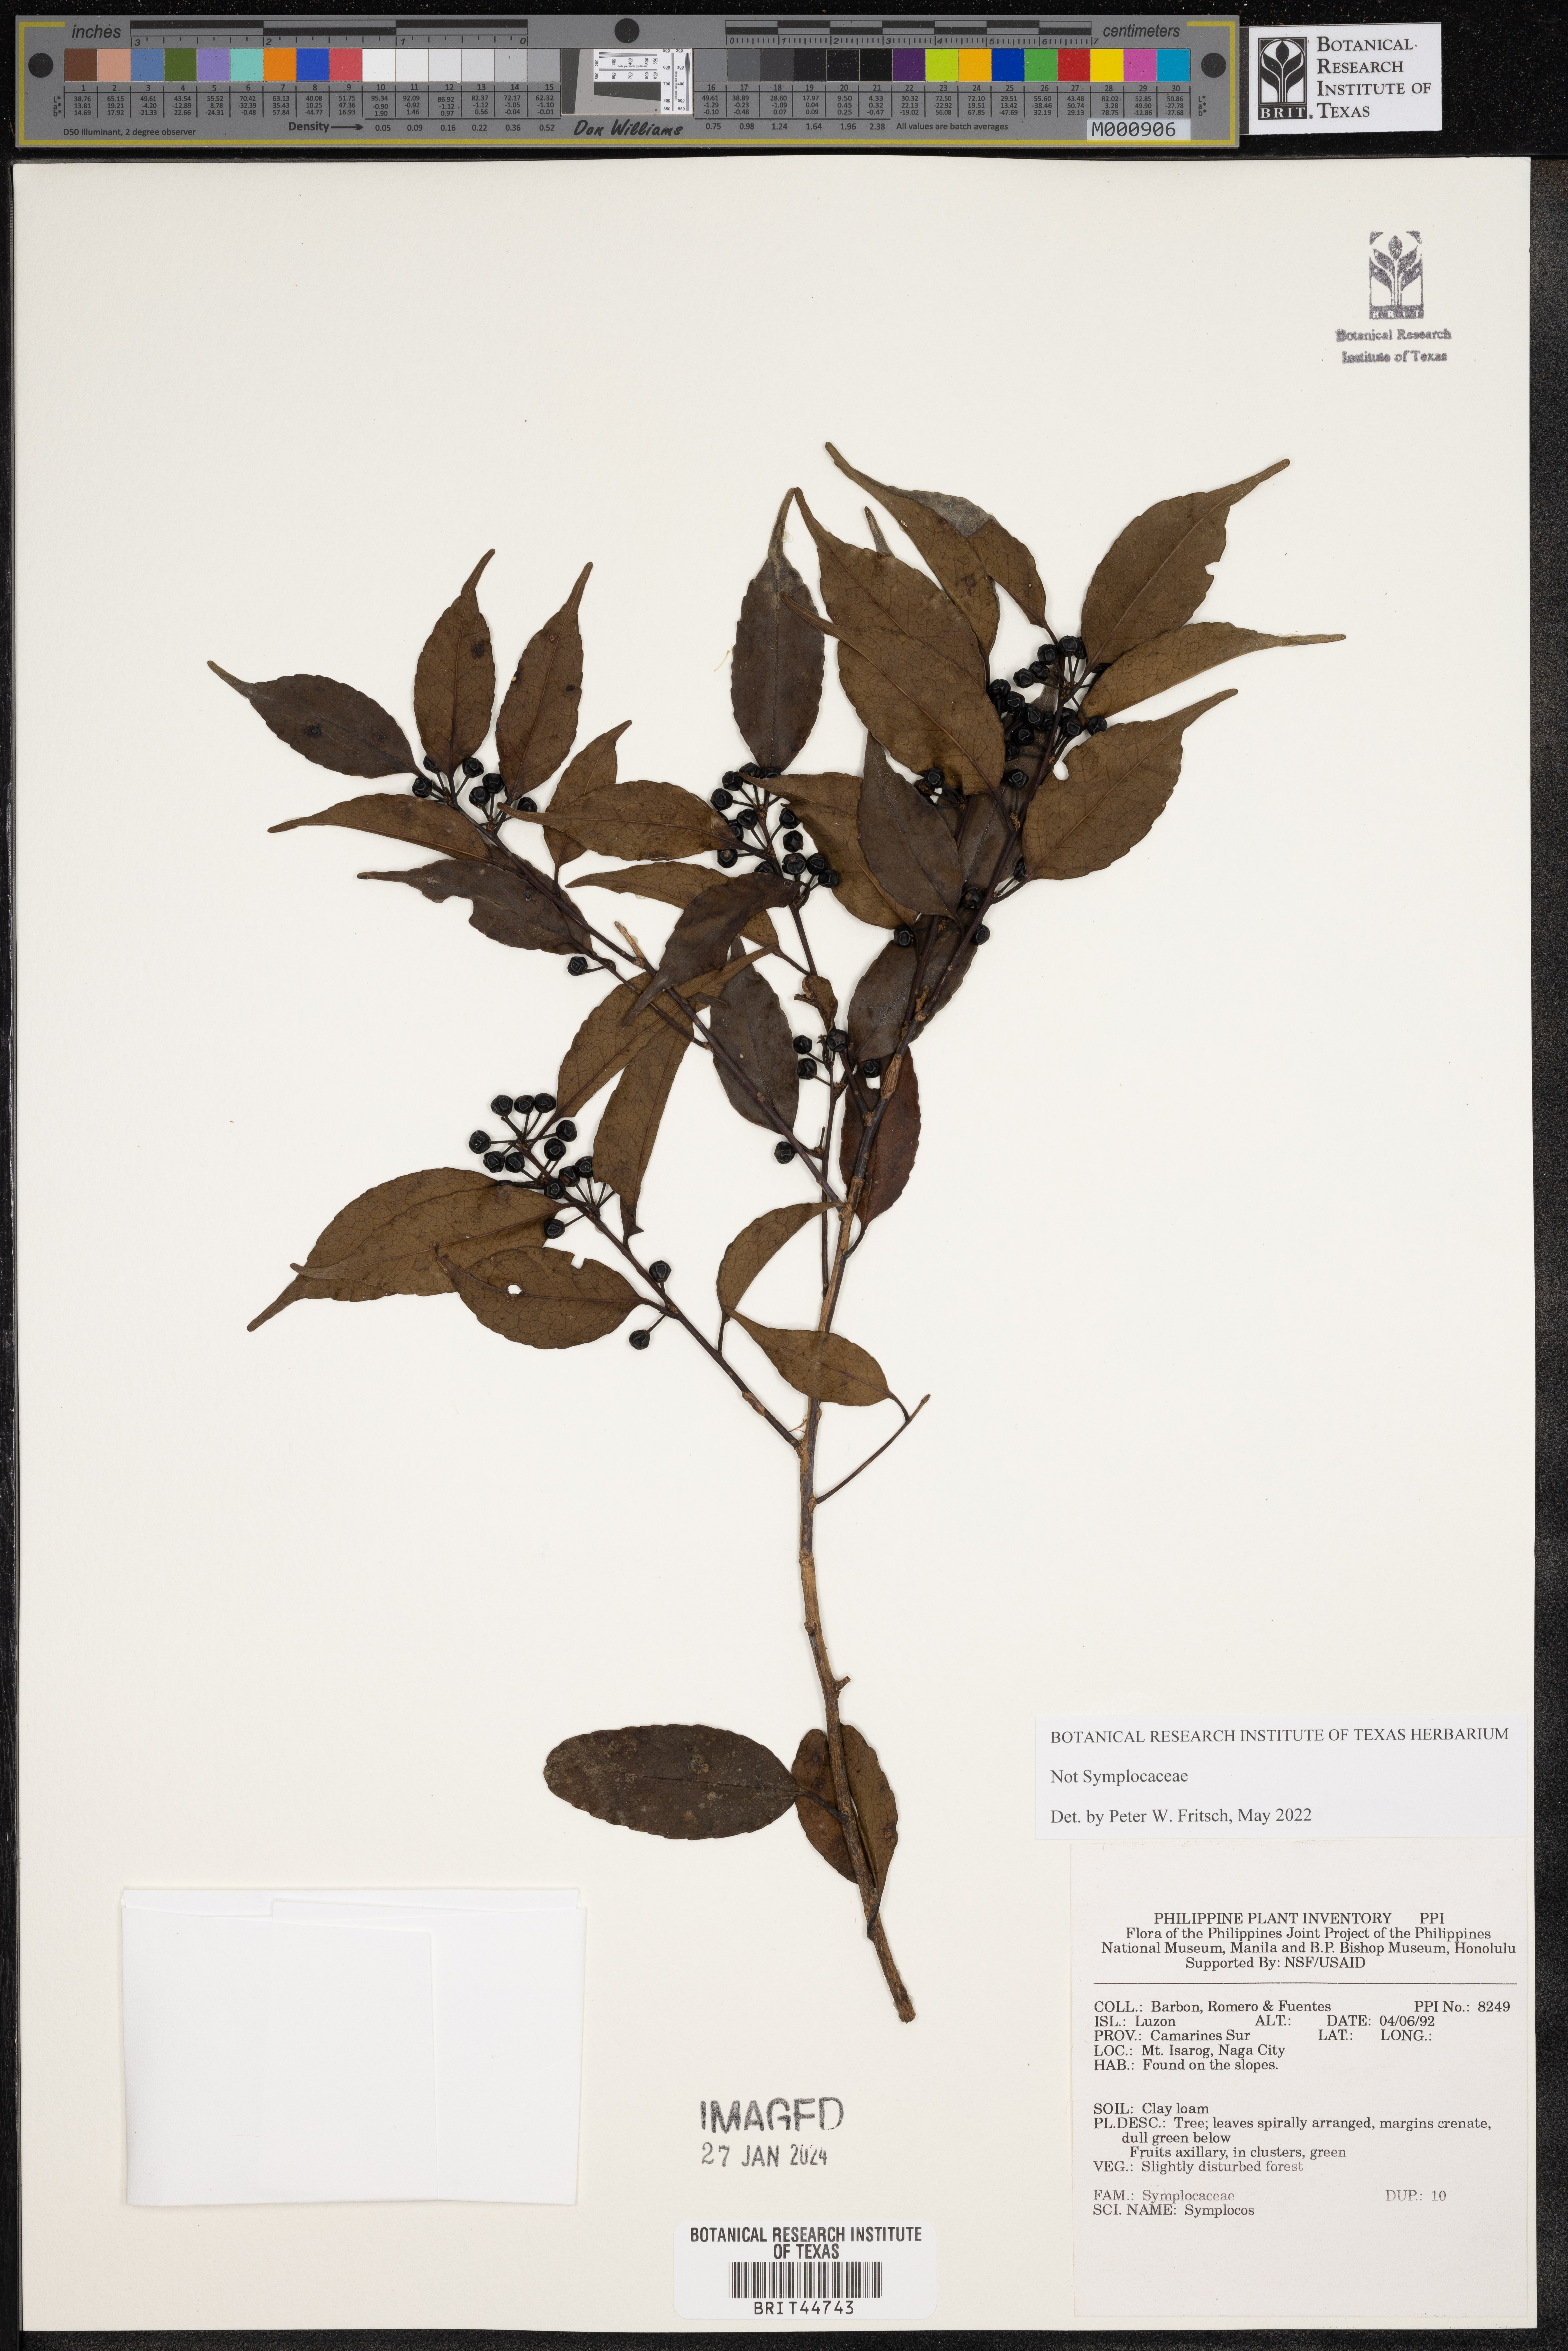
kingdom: Plantae
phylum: Tracheophyta
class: Magnoliopsida
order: Ericales
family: Symplocaceae
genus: Symplocos
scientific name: Symplocos
